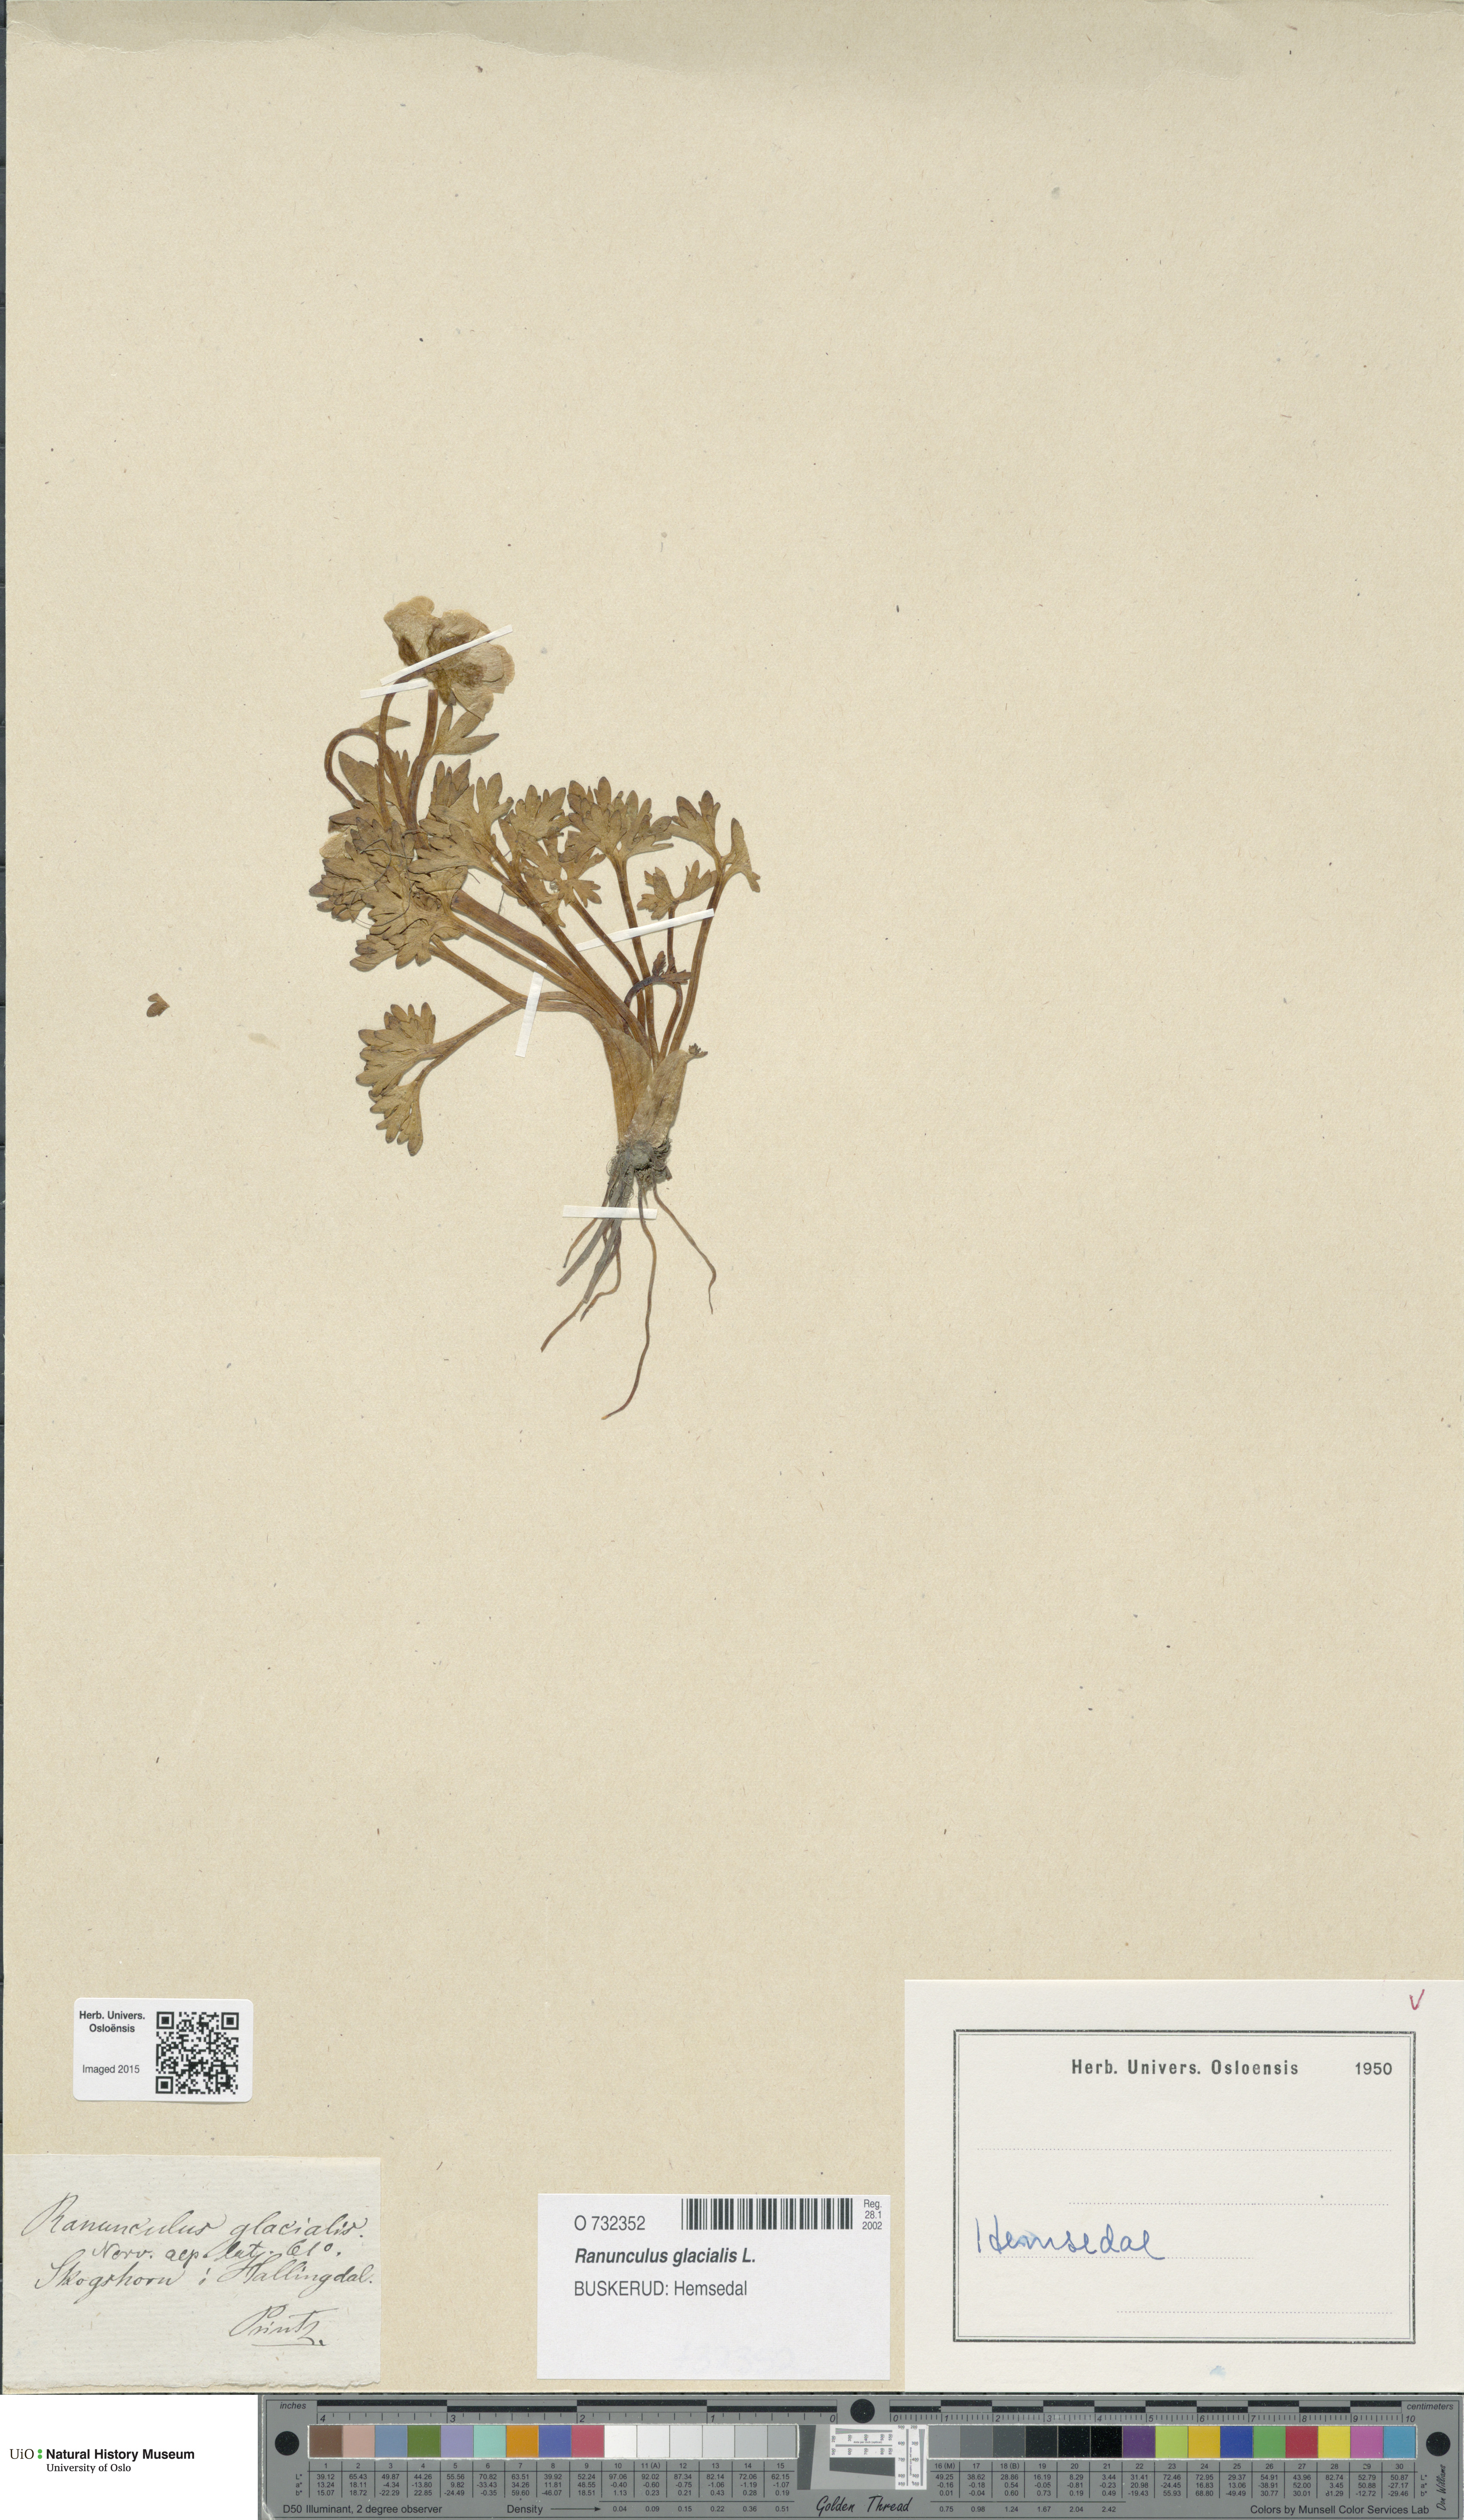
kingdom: Plantae
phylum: Tracheophyta
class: Magnoliopsida
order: Ranunculales
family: Ranunculaceae
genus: Ranunculus
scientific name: Ranunculus glacialis
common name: Glacier buttercup
